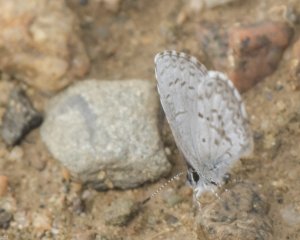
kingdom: Animalia
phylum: Arthropoda
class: Insecta
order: Lepidoptera
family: Lycaenidae
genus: Celastrina
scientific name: Celastrina lucia
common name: Northern Spring Azure
